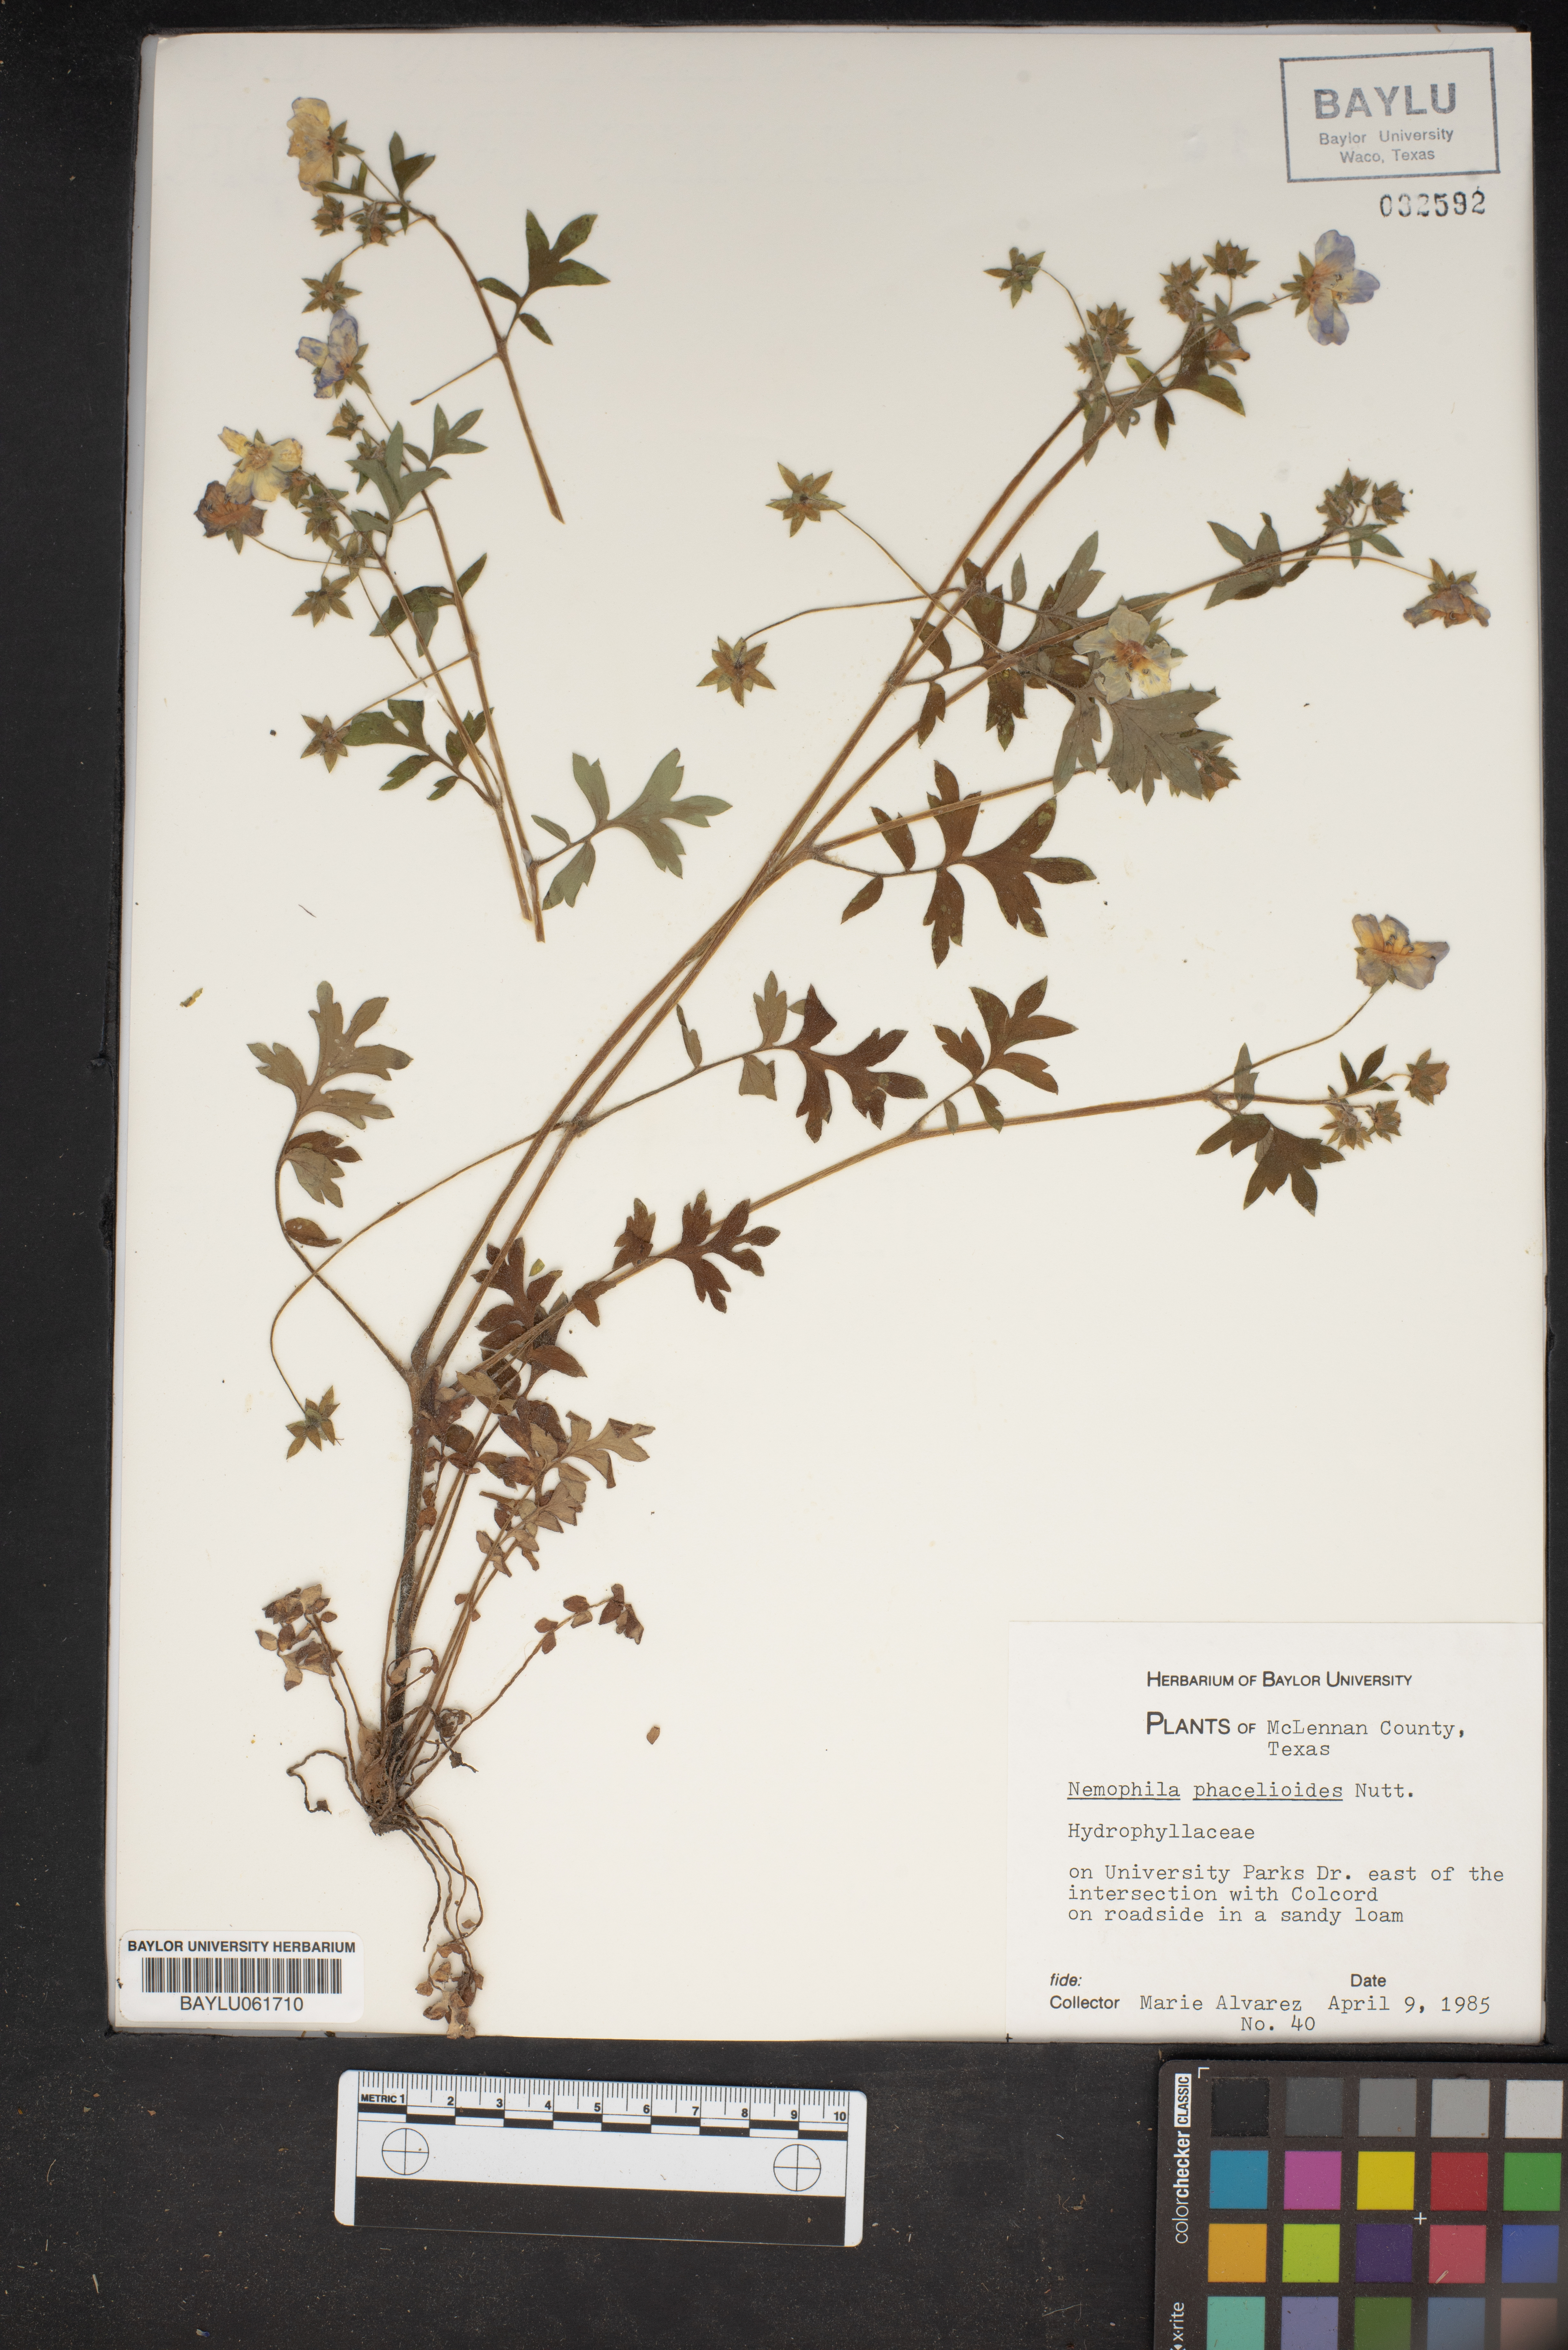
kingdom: Plantae
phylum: Tracheophyta
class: Magnoliopsida
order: Boraginales
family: Hydrophyllaceae
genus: Nemophila
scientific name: Nemophila phacelioides
